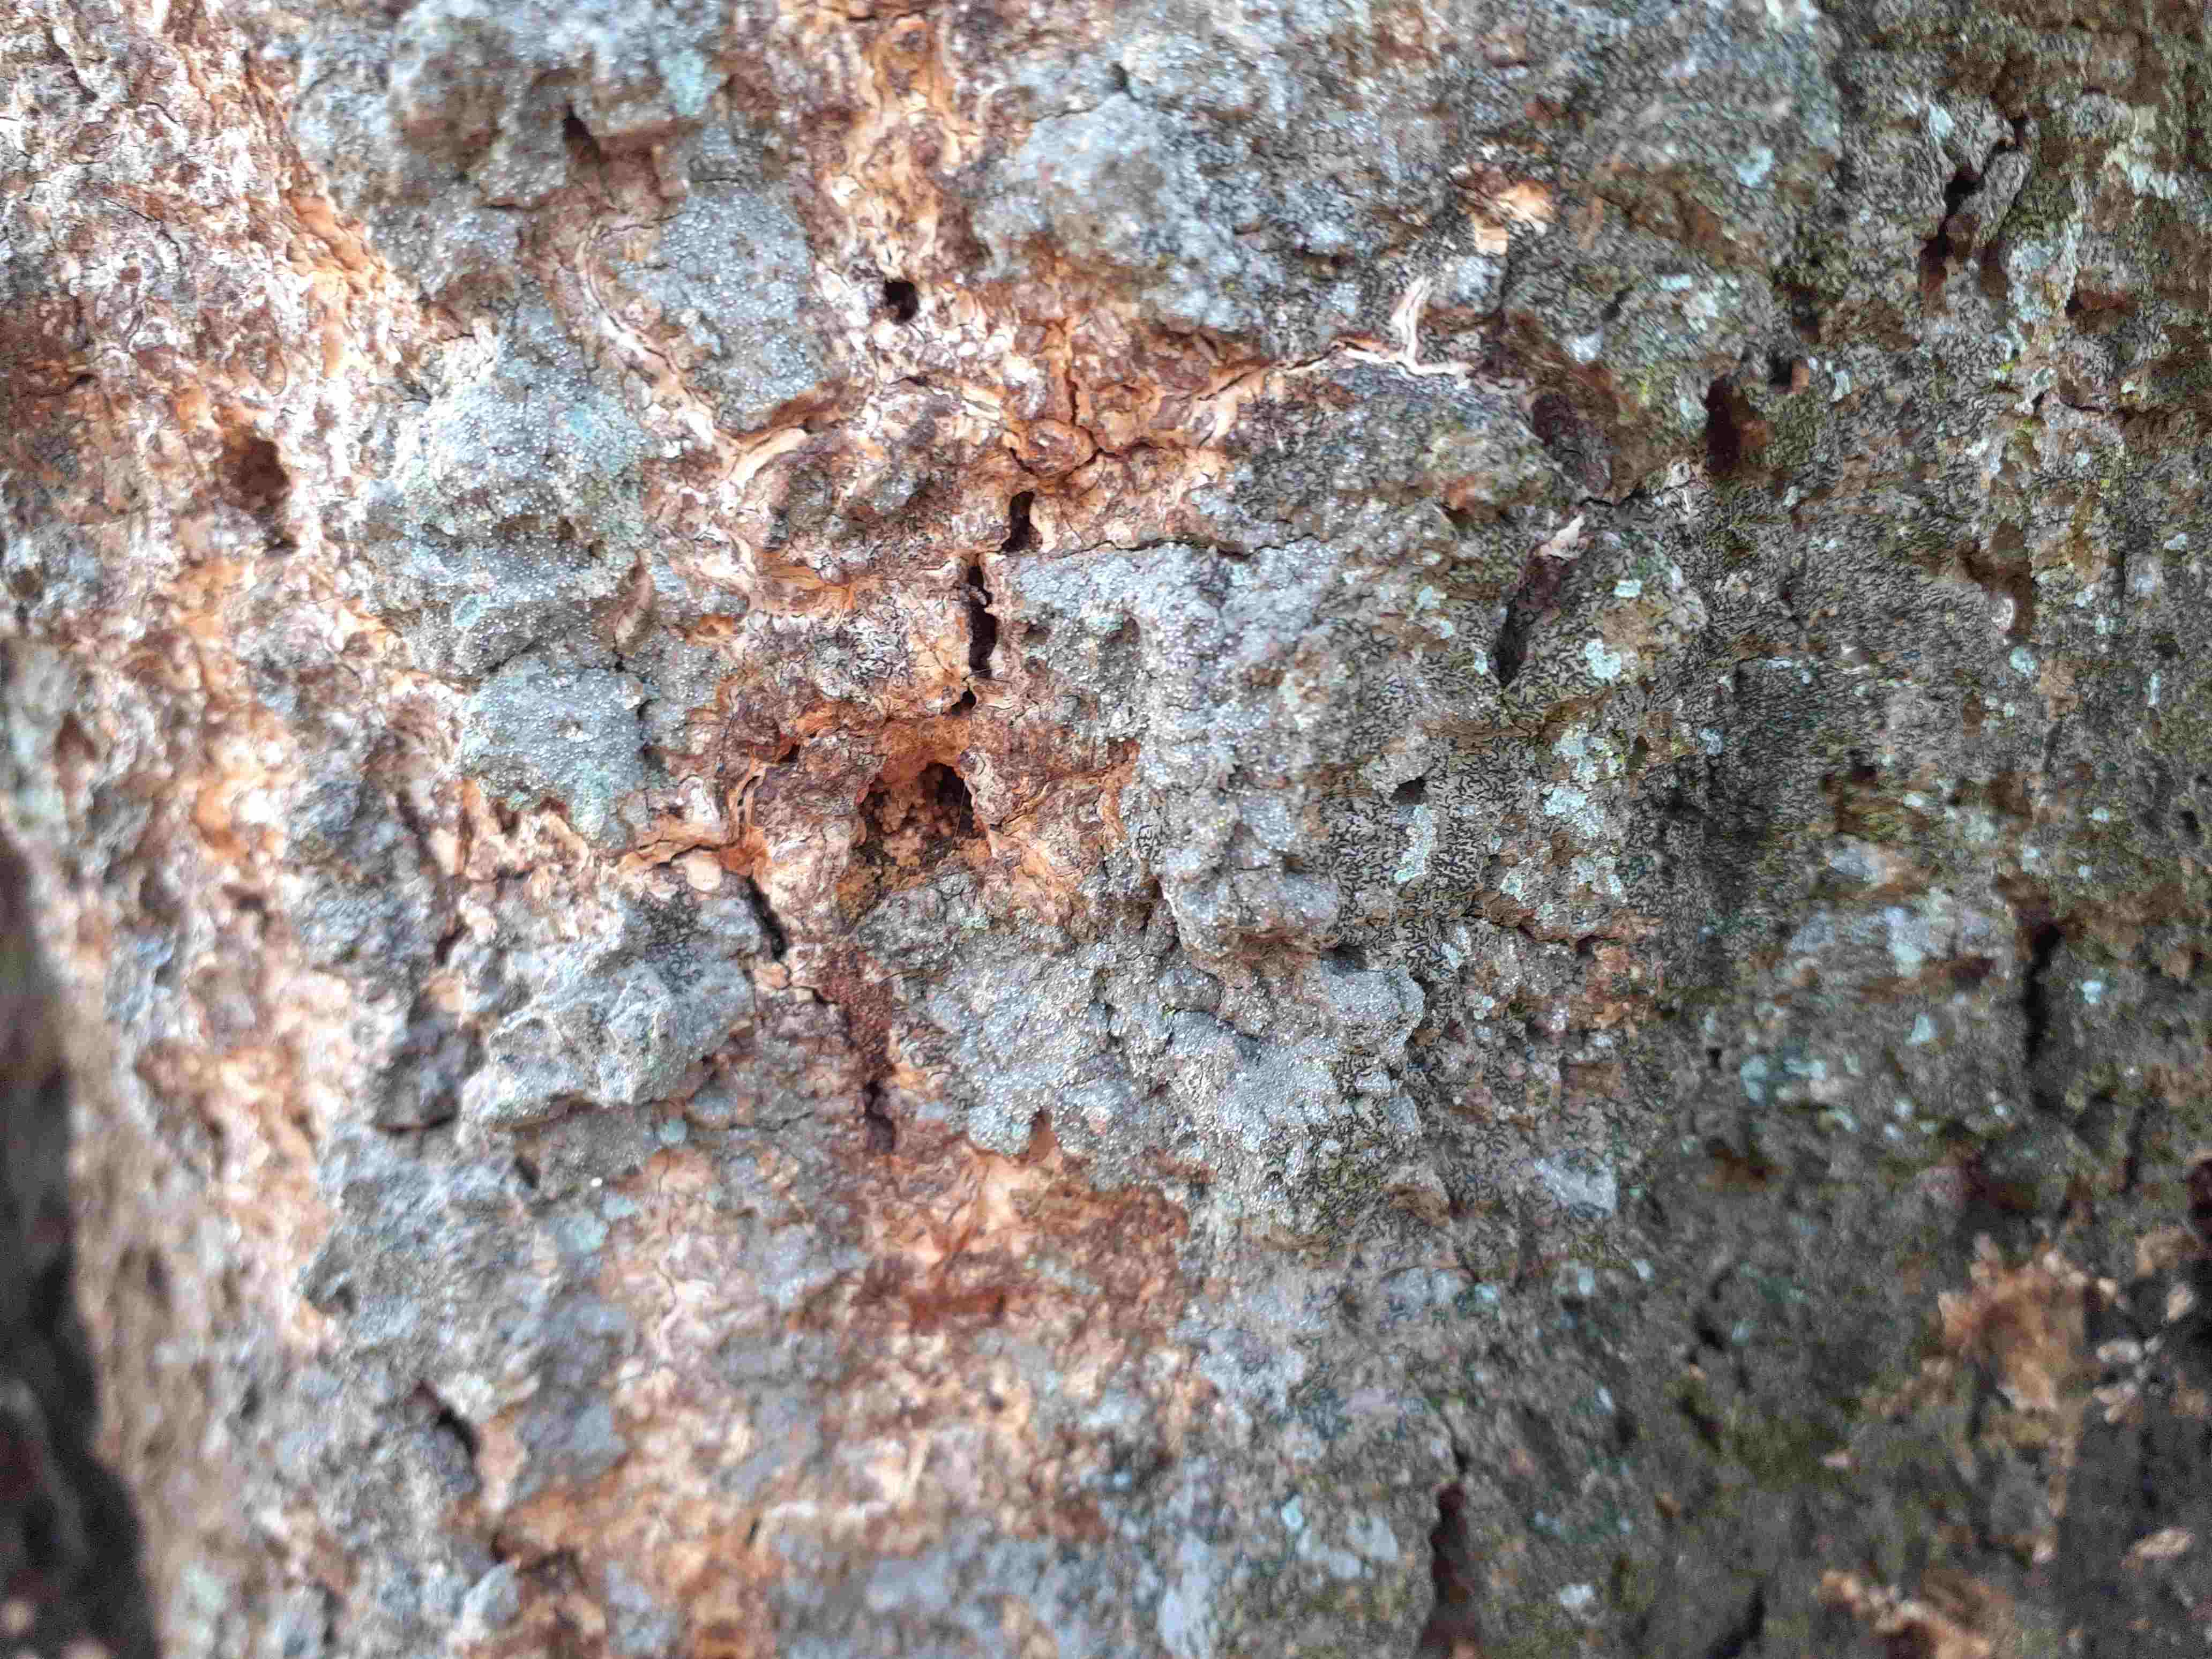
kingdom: Fungi
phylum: Ascomycota
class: Arthoniomycetes
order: Arthoniales
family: Opegraphaceae
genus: Opegrapha
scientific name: Opegrapha vermicellifera
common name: nåleprikket bogstavlav
